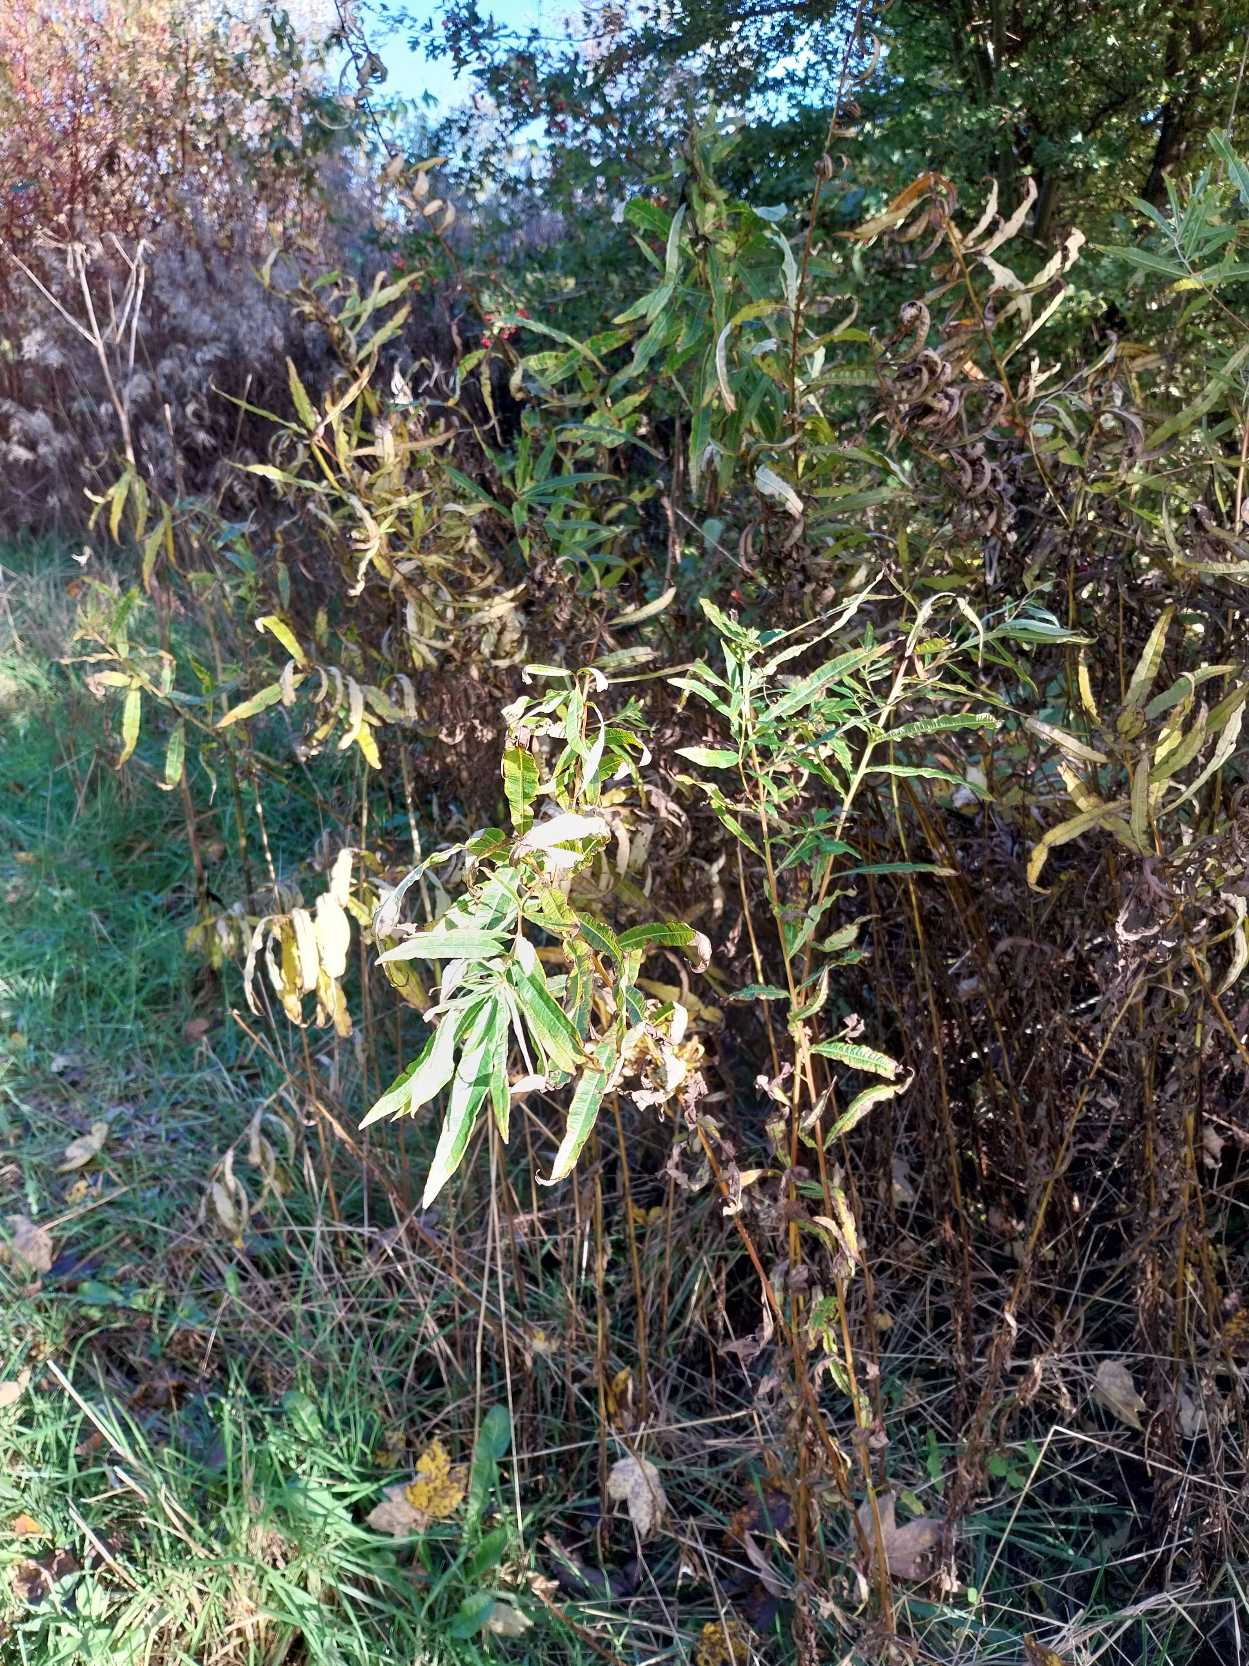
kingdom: Plantae
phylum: Tracheophyta
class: Magnoliopsida
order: Myrtales
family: Onagraceae
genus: Chamaenerion
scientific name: Chamaenerion angustifolium
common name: Gederams
